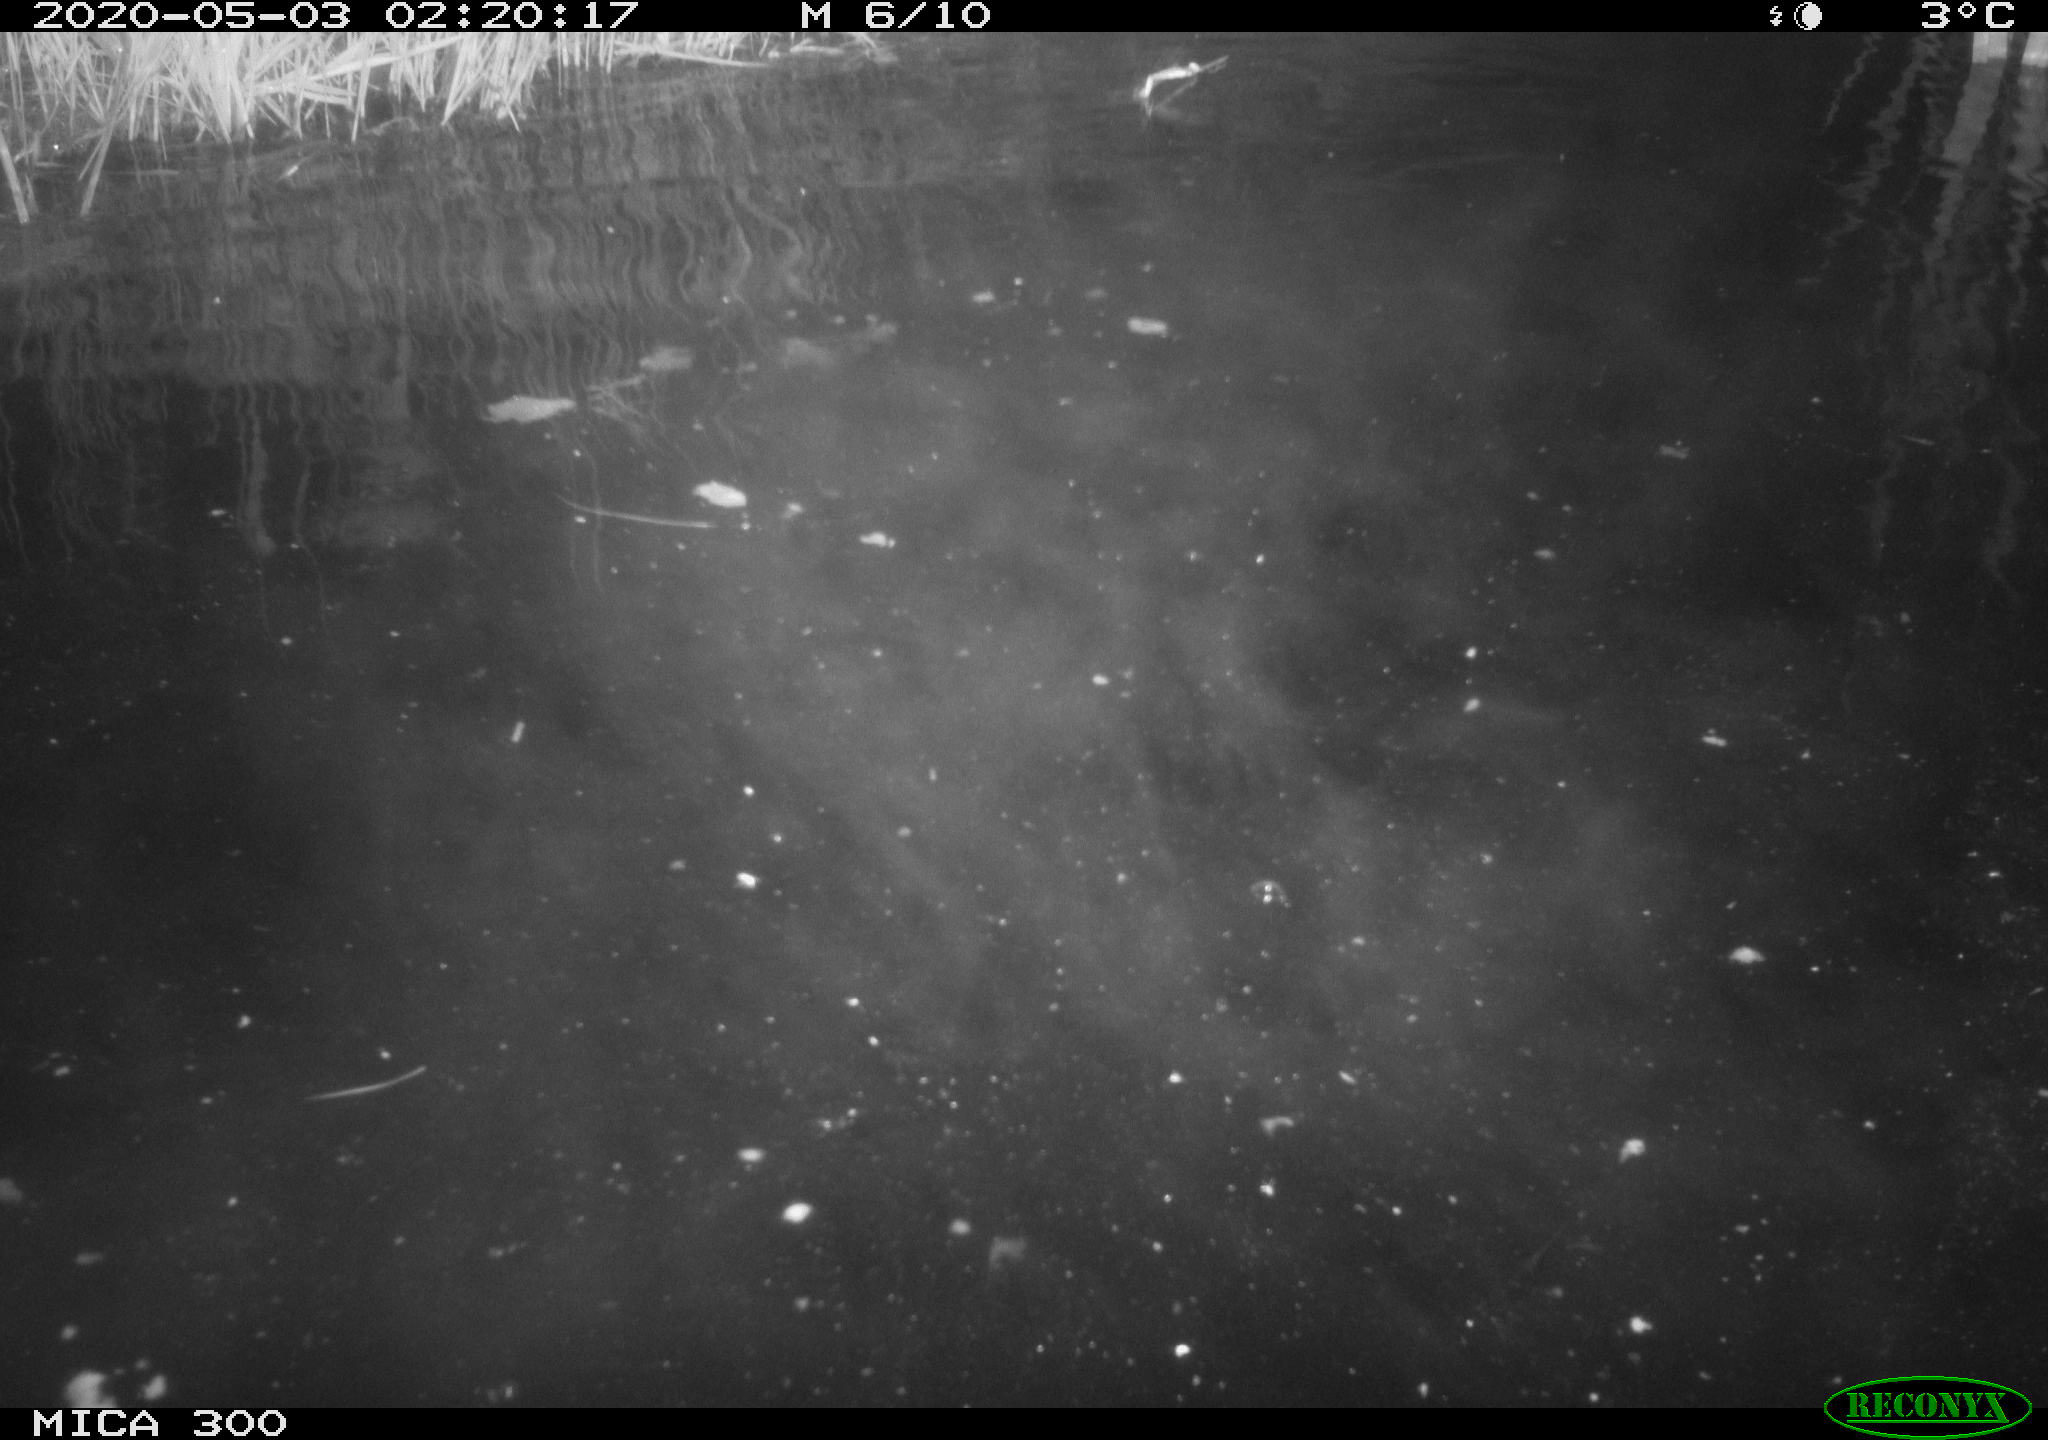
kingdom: Animalia
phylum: Chordata
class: Mammalia
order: Rodentia
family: Castoridae
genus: Castor
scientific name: Castor fiber
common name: Eurasian beaver
